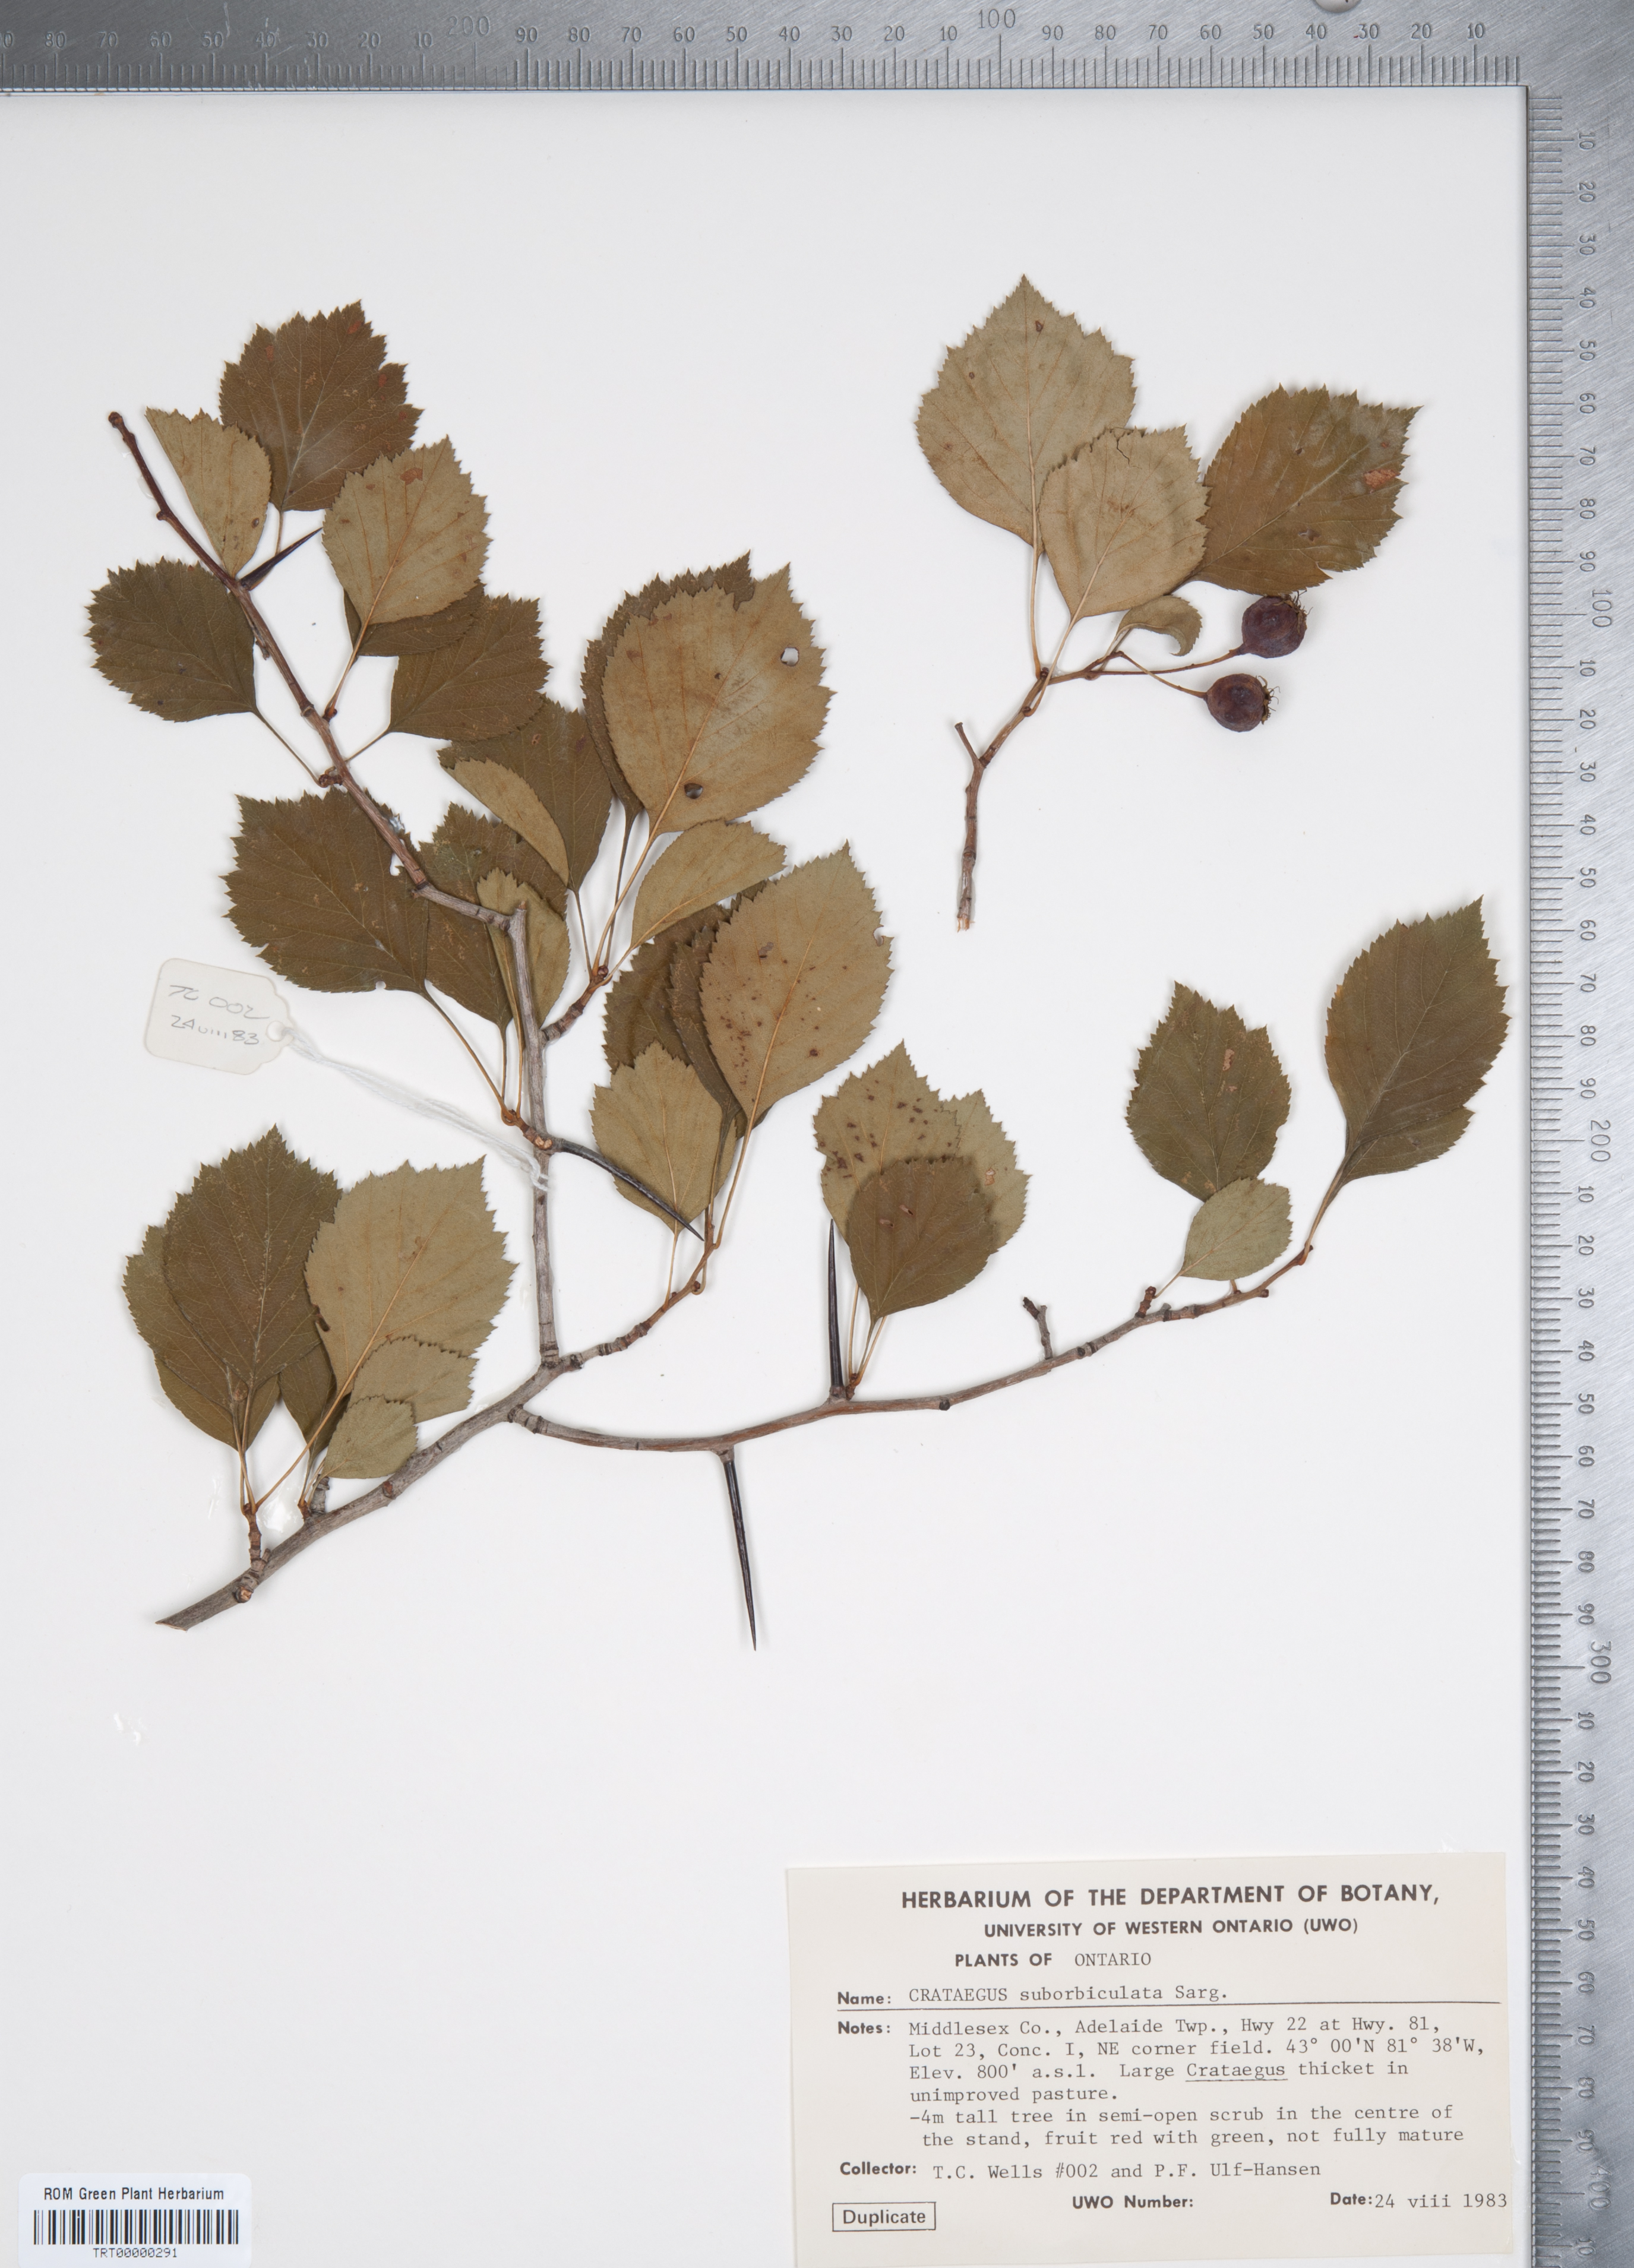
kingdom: Plantae
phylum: Tracheophyta
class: Magnoliopsida
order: Rosales
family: Rosaceae
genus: Crataegus
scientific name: Crataegus suborbiculata
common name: Caughnawaga hawthorn
